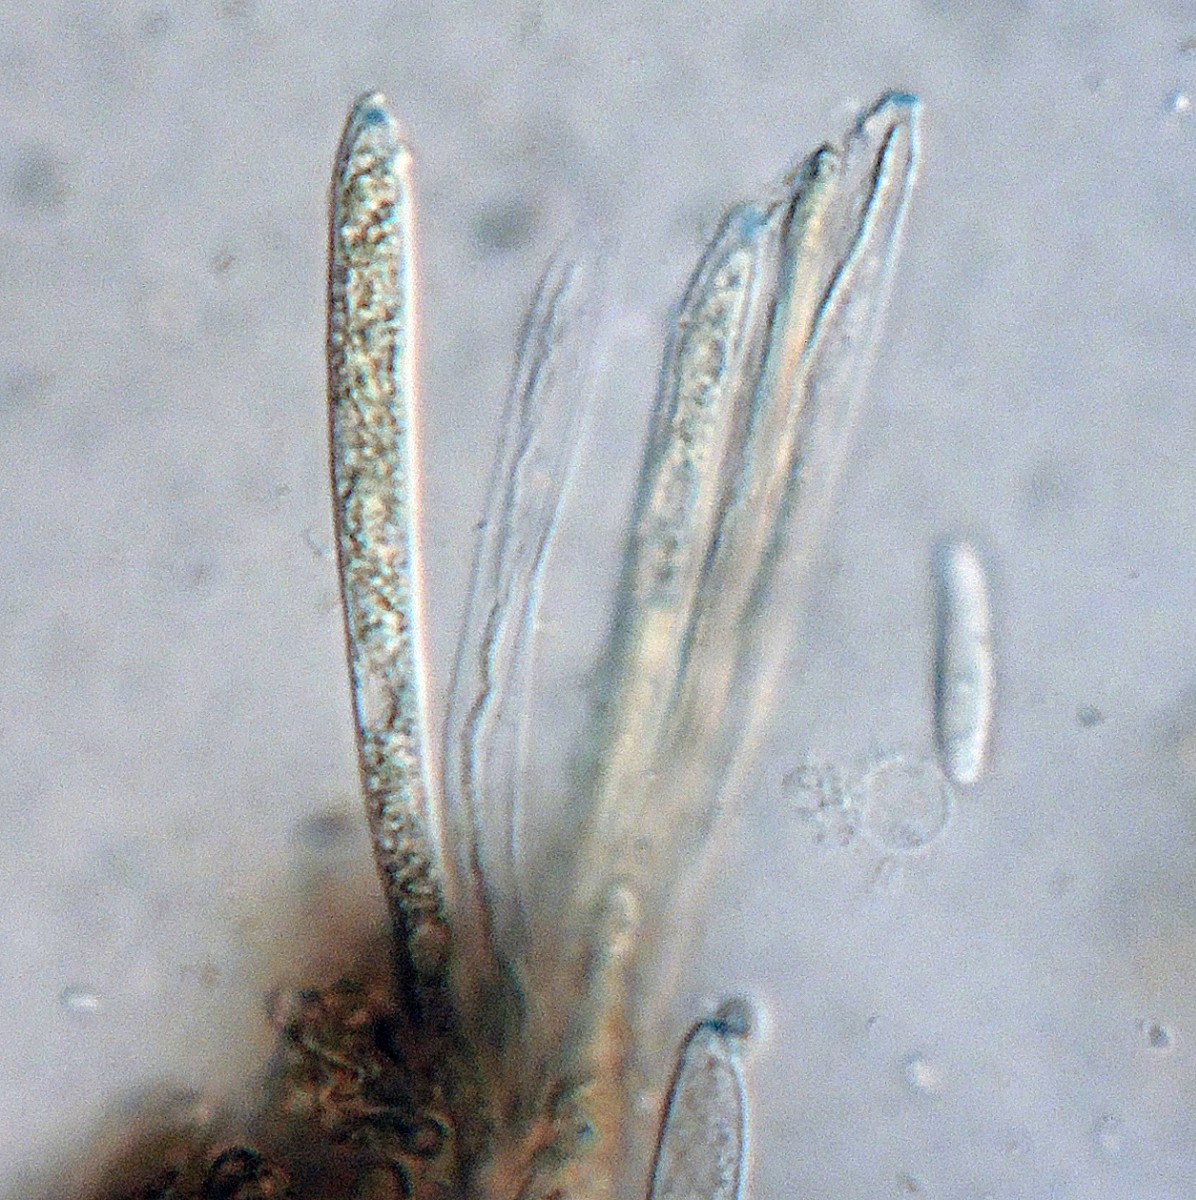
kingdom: Fungi
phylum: Ascomycota
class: Leotiomycetes
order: Helotiales
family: Helotiaceae
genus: Cyathicula
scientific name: Cyathicula tomentosa
